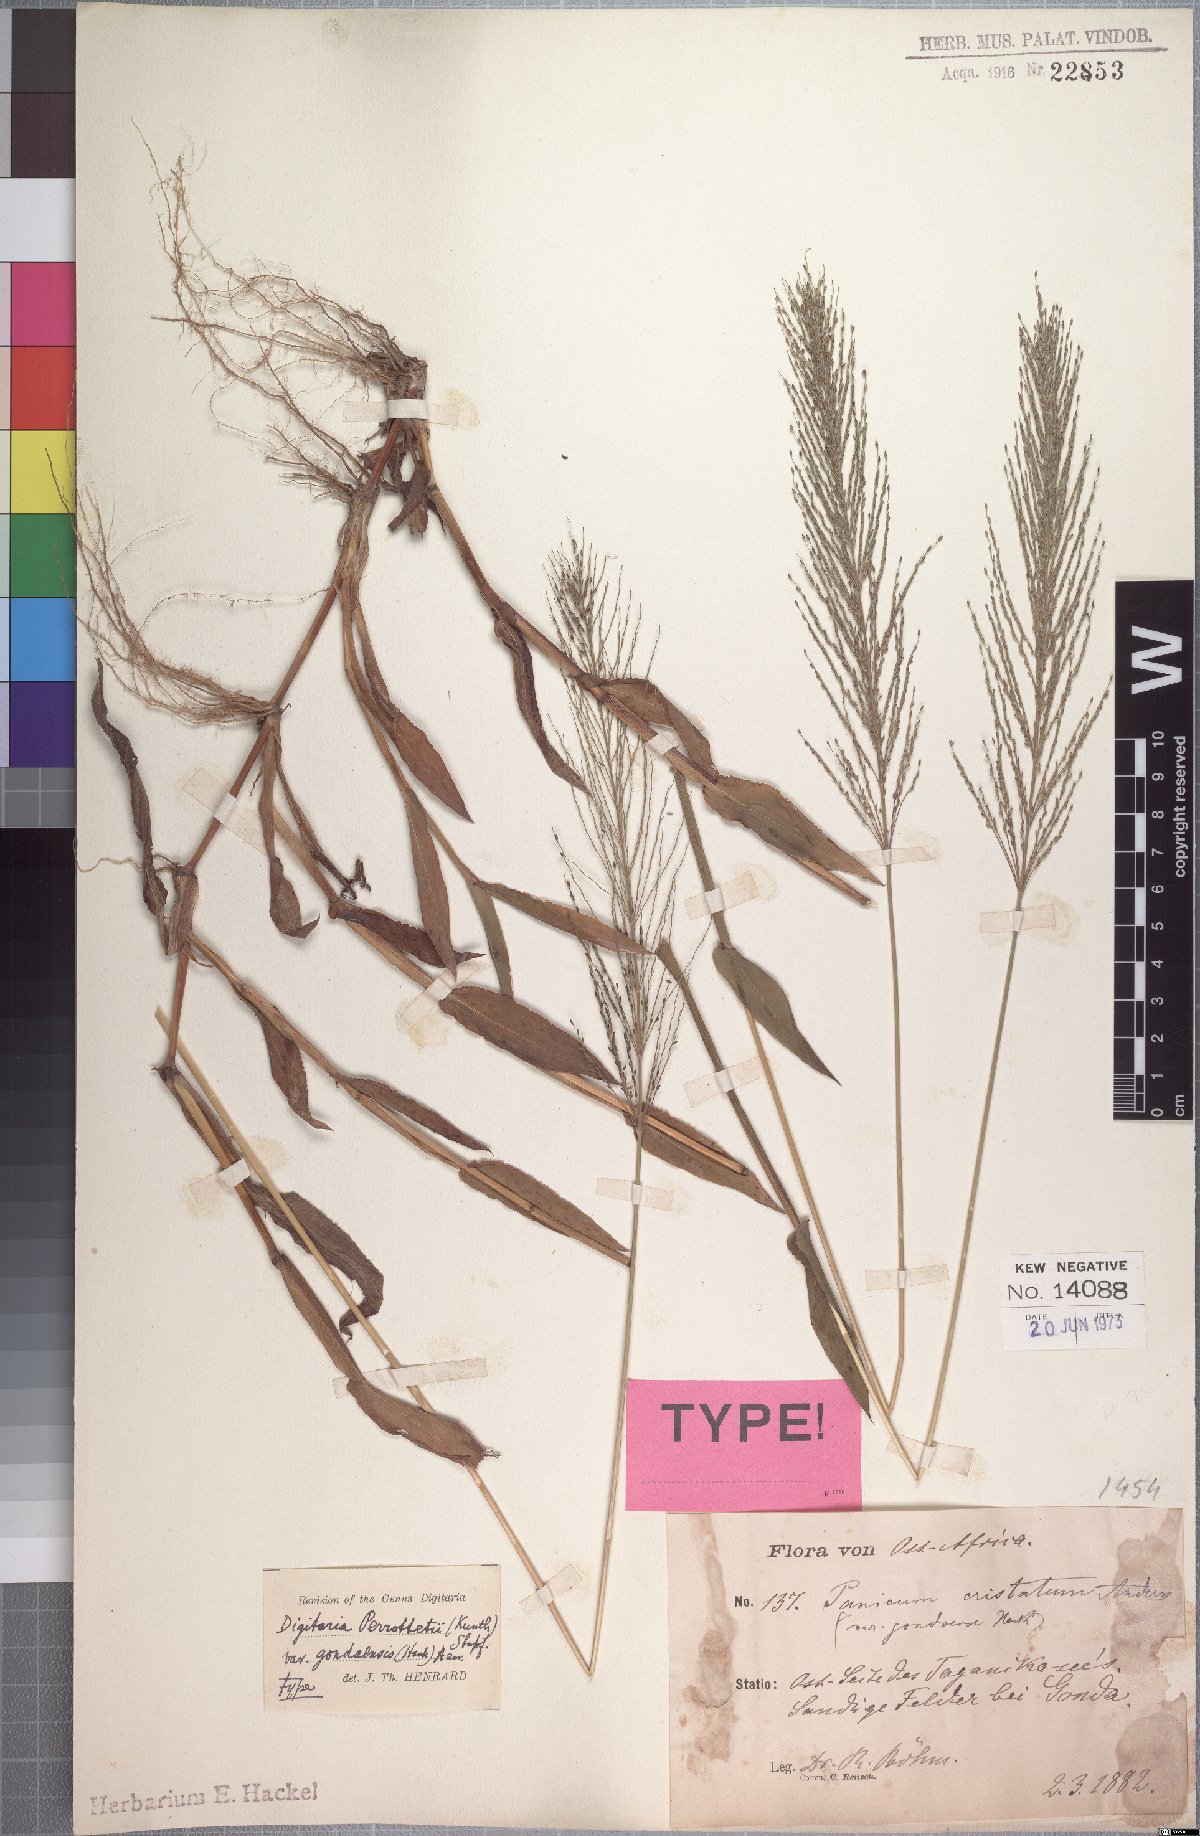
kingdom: Plantae
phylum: Tracheophyta
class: Liliopsida
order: Poales
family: Poaceae
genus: Digitaria
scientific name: Digitaria perrottetii
